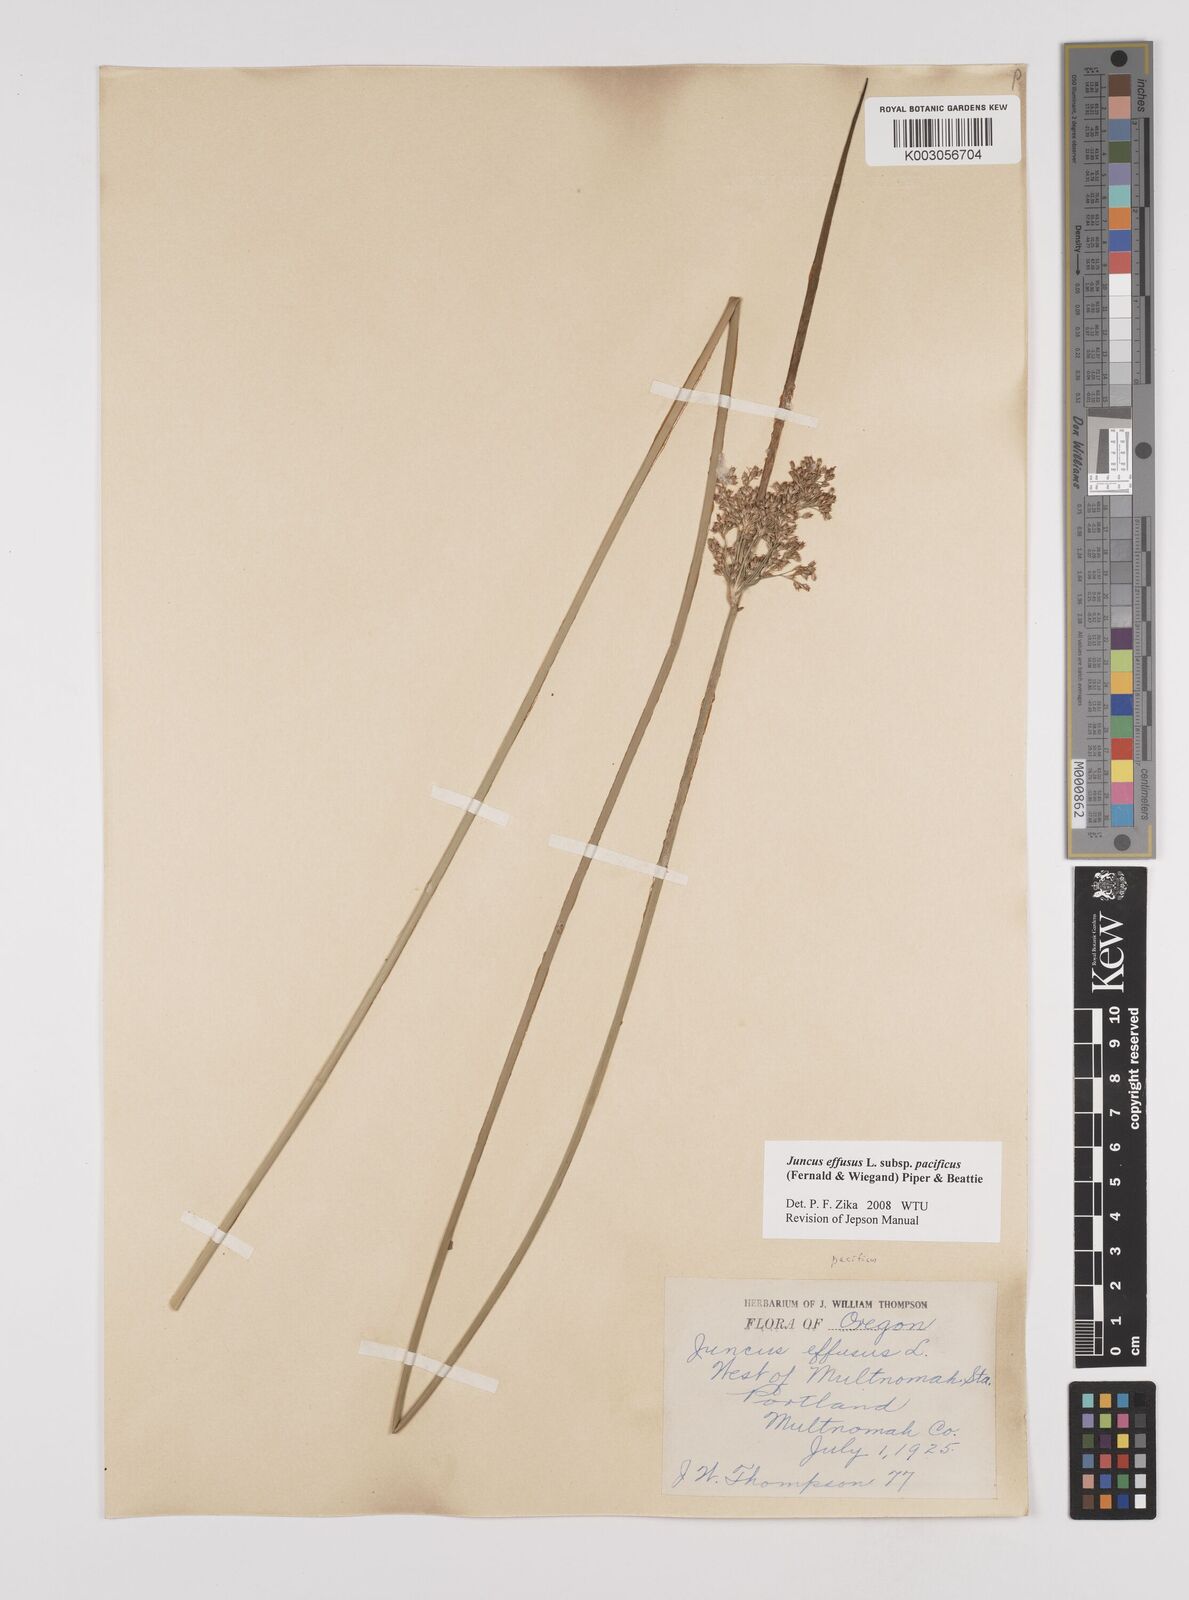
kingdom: Plantae
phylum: Tracheophyta
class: Liliopsida
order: Poales
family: Juncaceae
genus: Juncus
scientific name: Juncus effusus
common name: Soft rush
